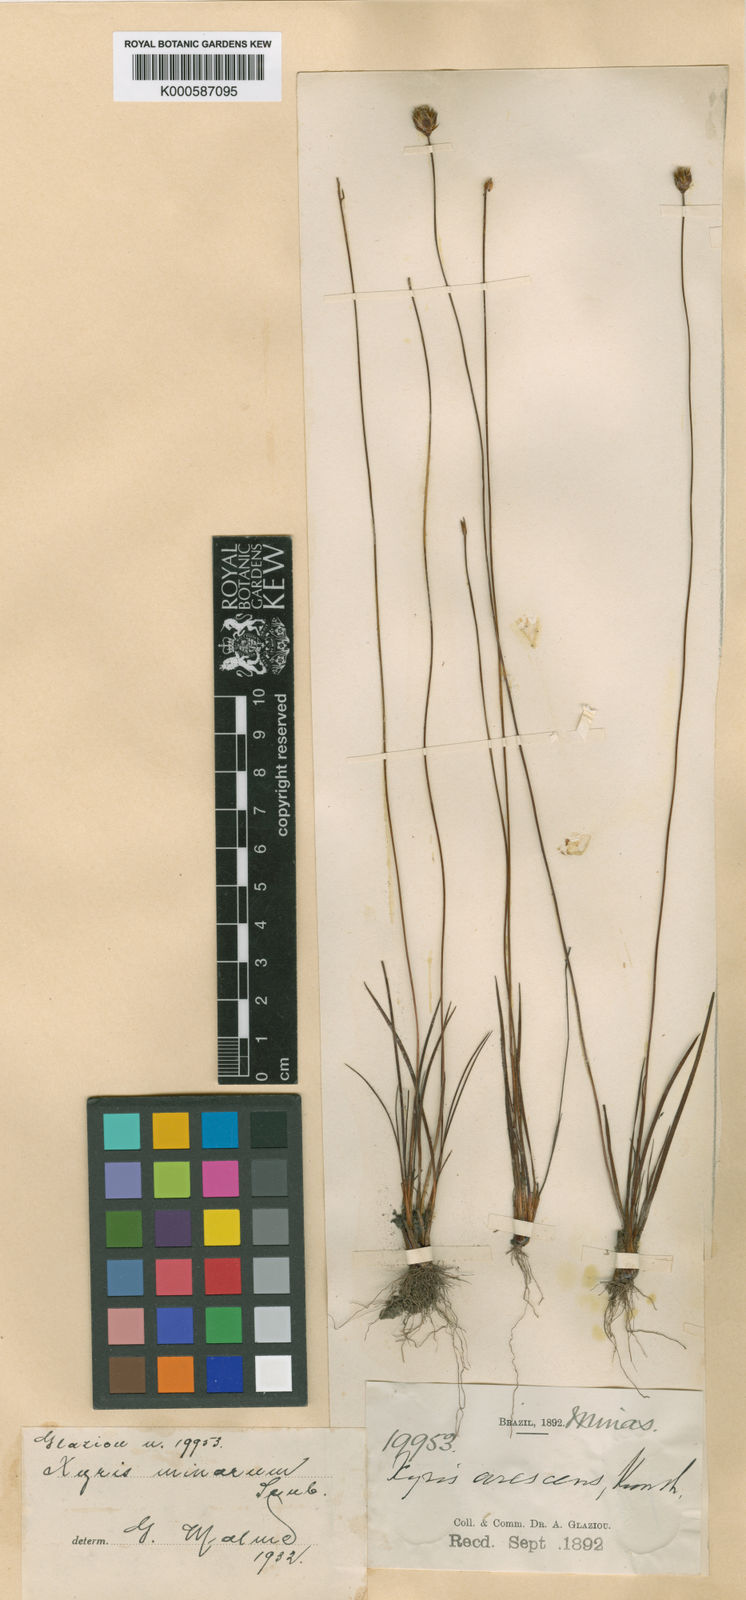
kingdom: Plantae
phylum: Tracheophyta
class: Liliopsida
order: Poales
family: Xyridaceae
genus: Xyris
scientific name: Xyris minarum
